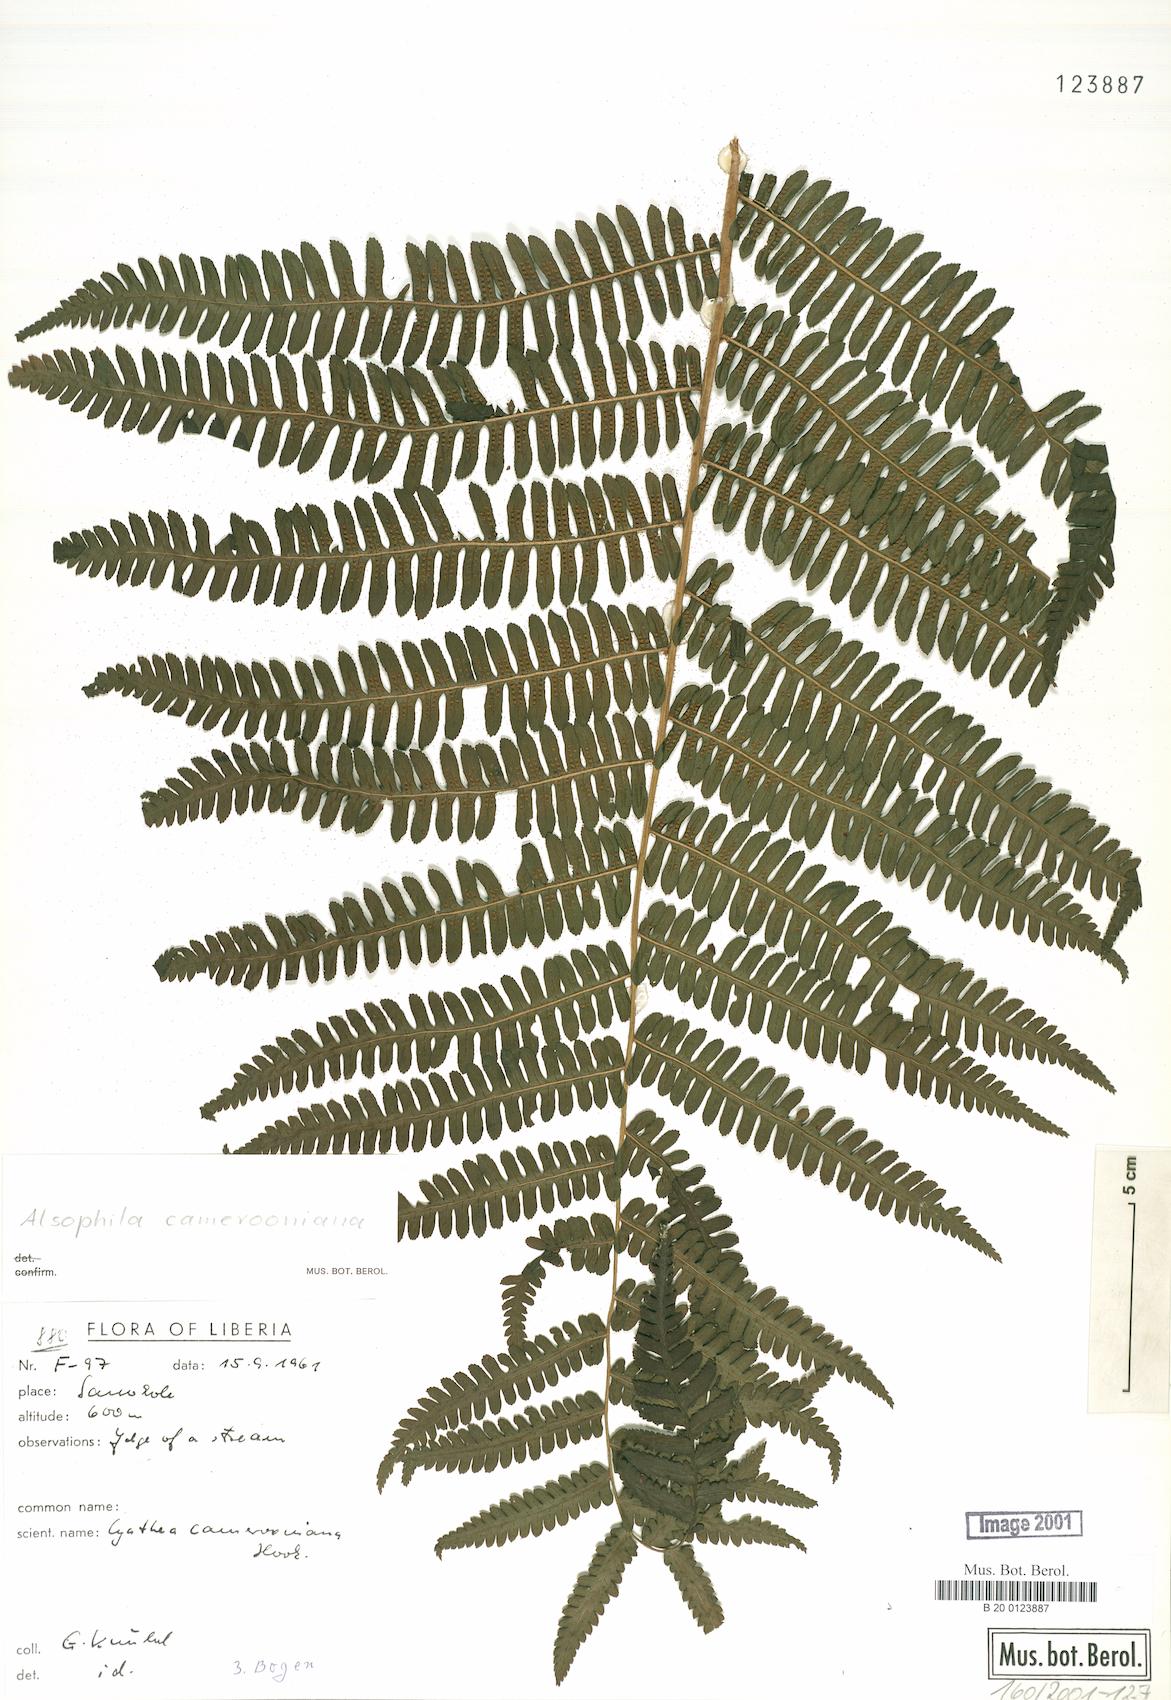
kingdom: Plantae
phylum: Tracheophyta
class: Polypodiopsida
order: Cyatheales
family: Cyatheaceae
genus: Alsophila
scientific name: Alsophila camerooniana
